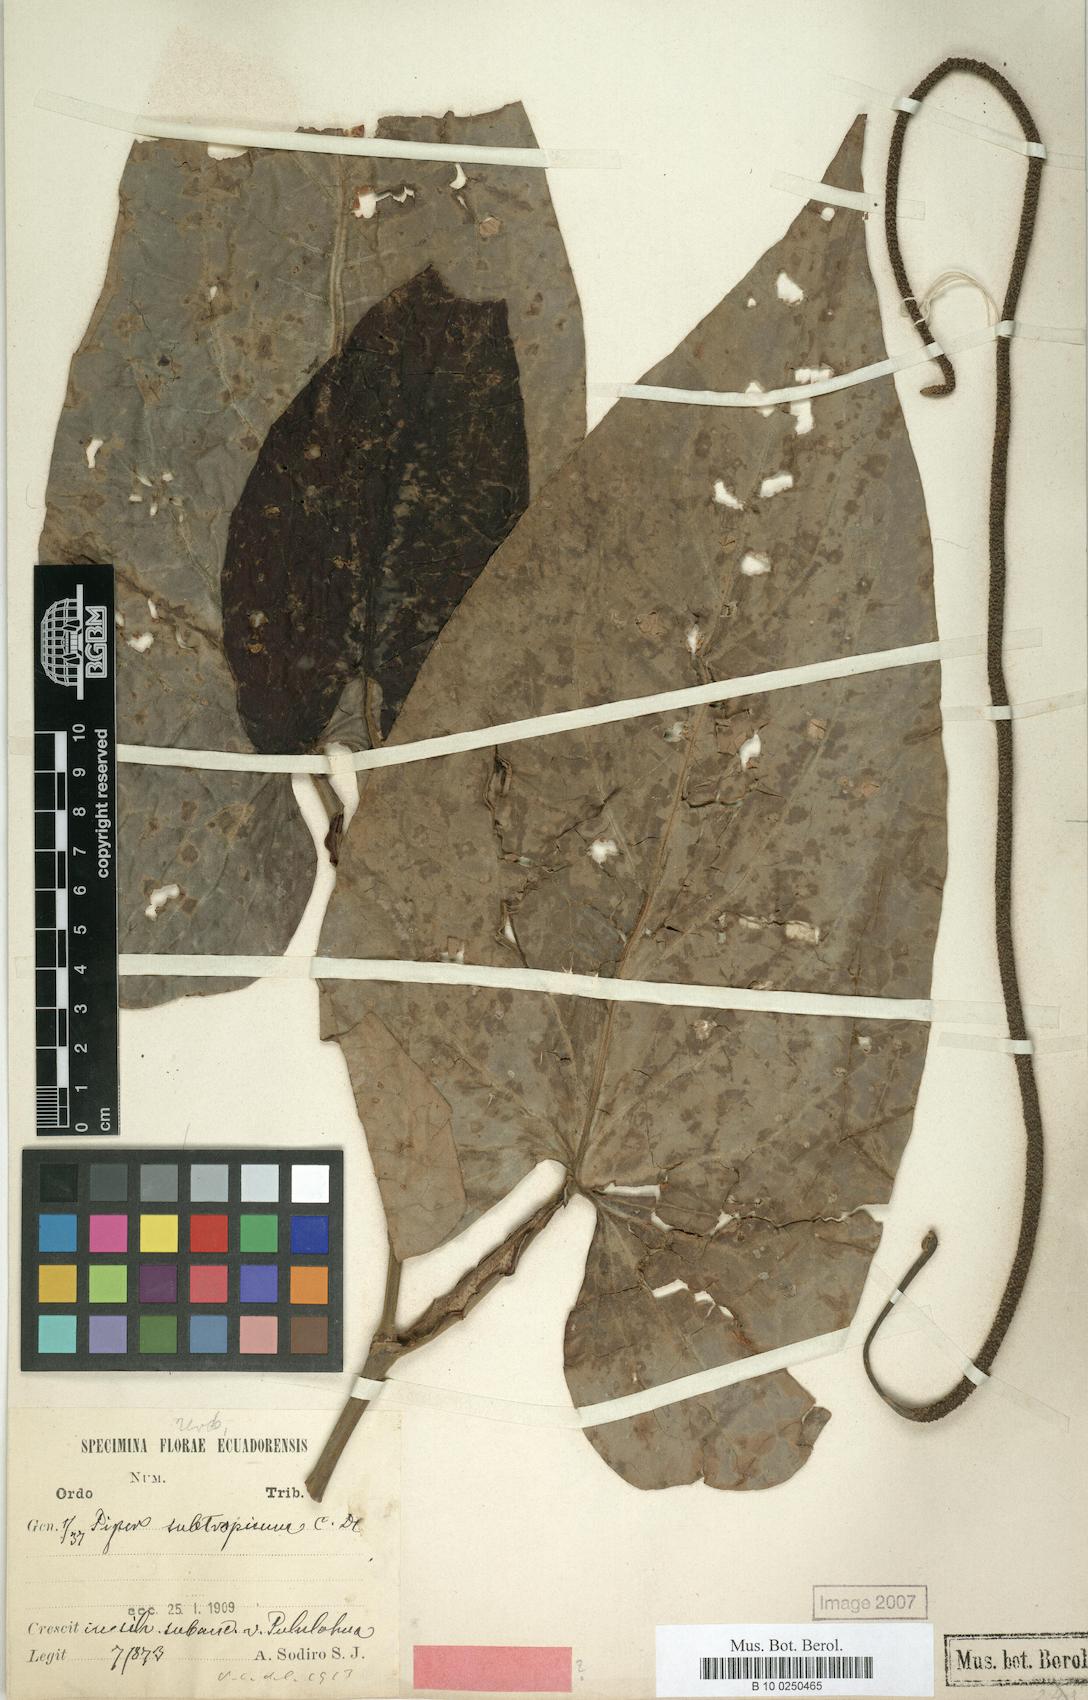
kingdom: Plantae
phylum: Tracheophyta
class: Magnoliopsida
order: Piperales
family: Piperaceae
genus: Piper
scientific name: Piper obliquum
